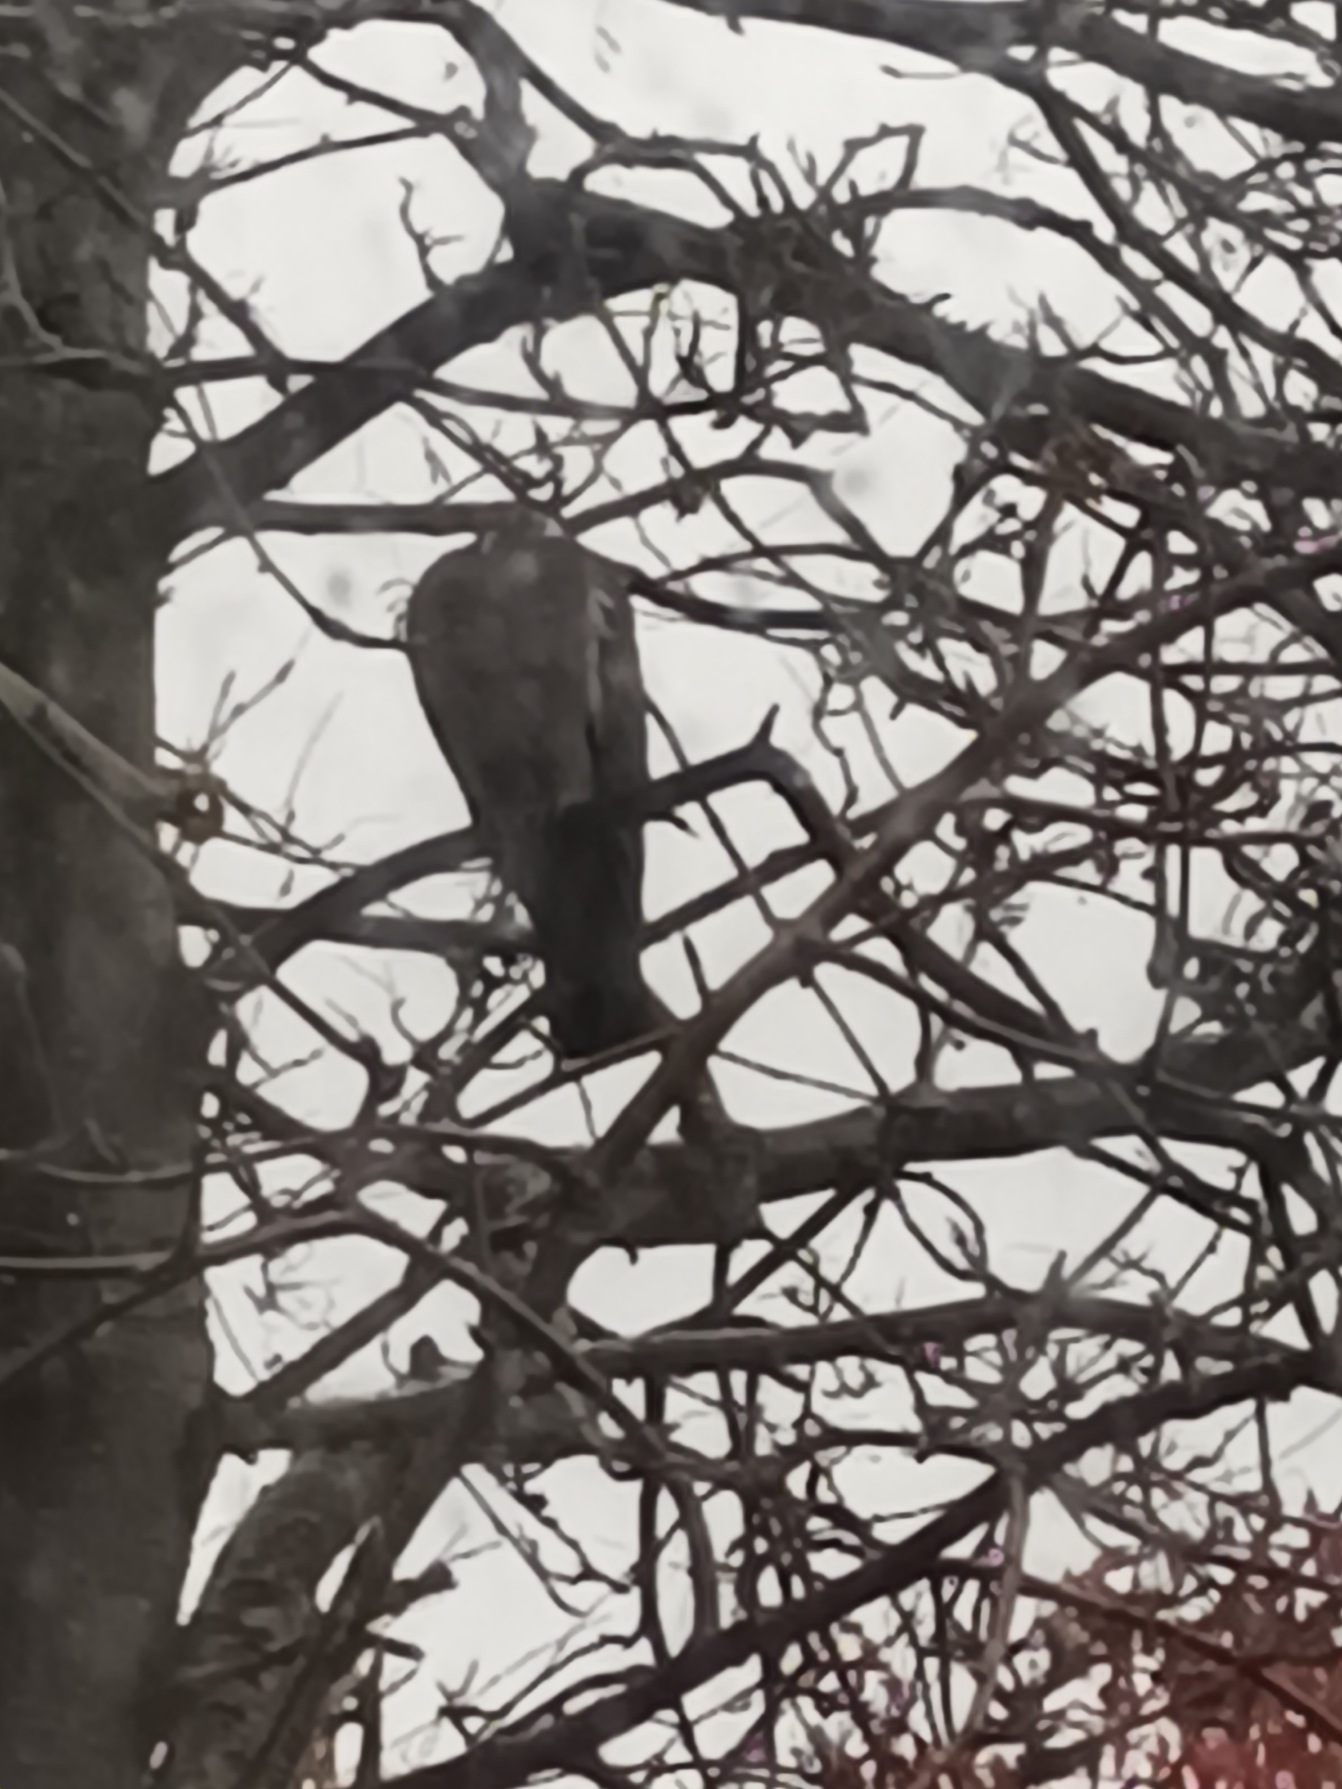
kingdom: Animalia
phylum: Chordata
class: Aves
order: Columbiformes
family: Columbidae
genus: Columba
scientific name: Columba palumbus
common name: Ringdue
